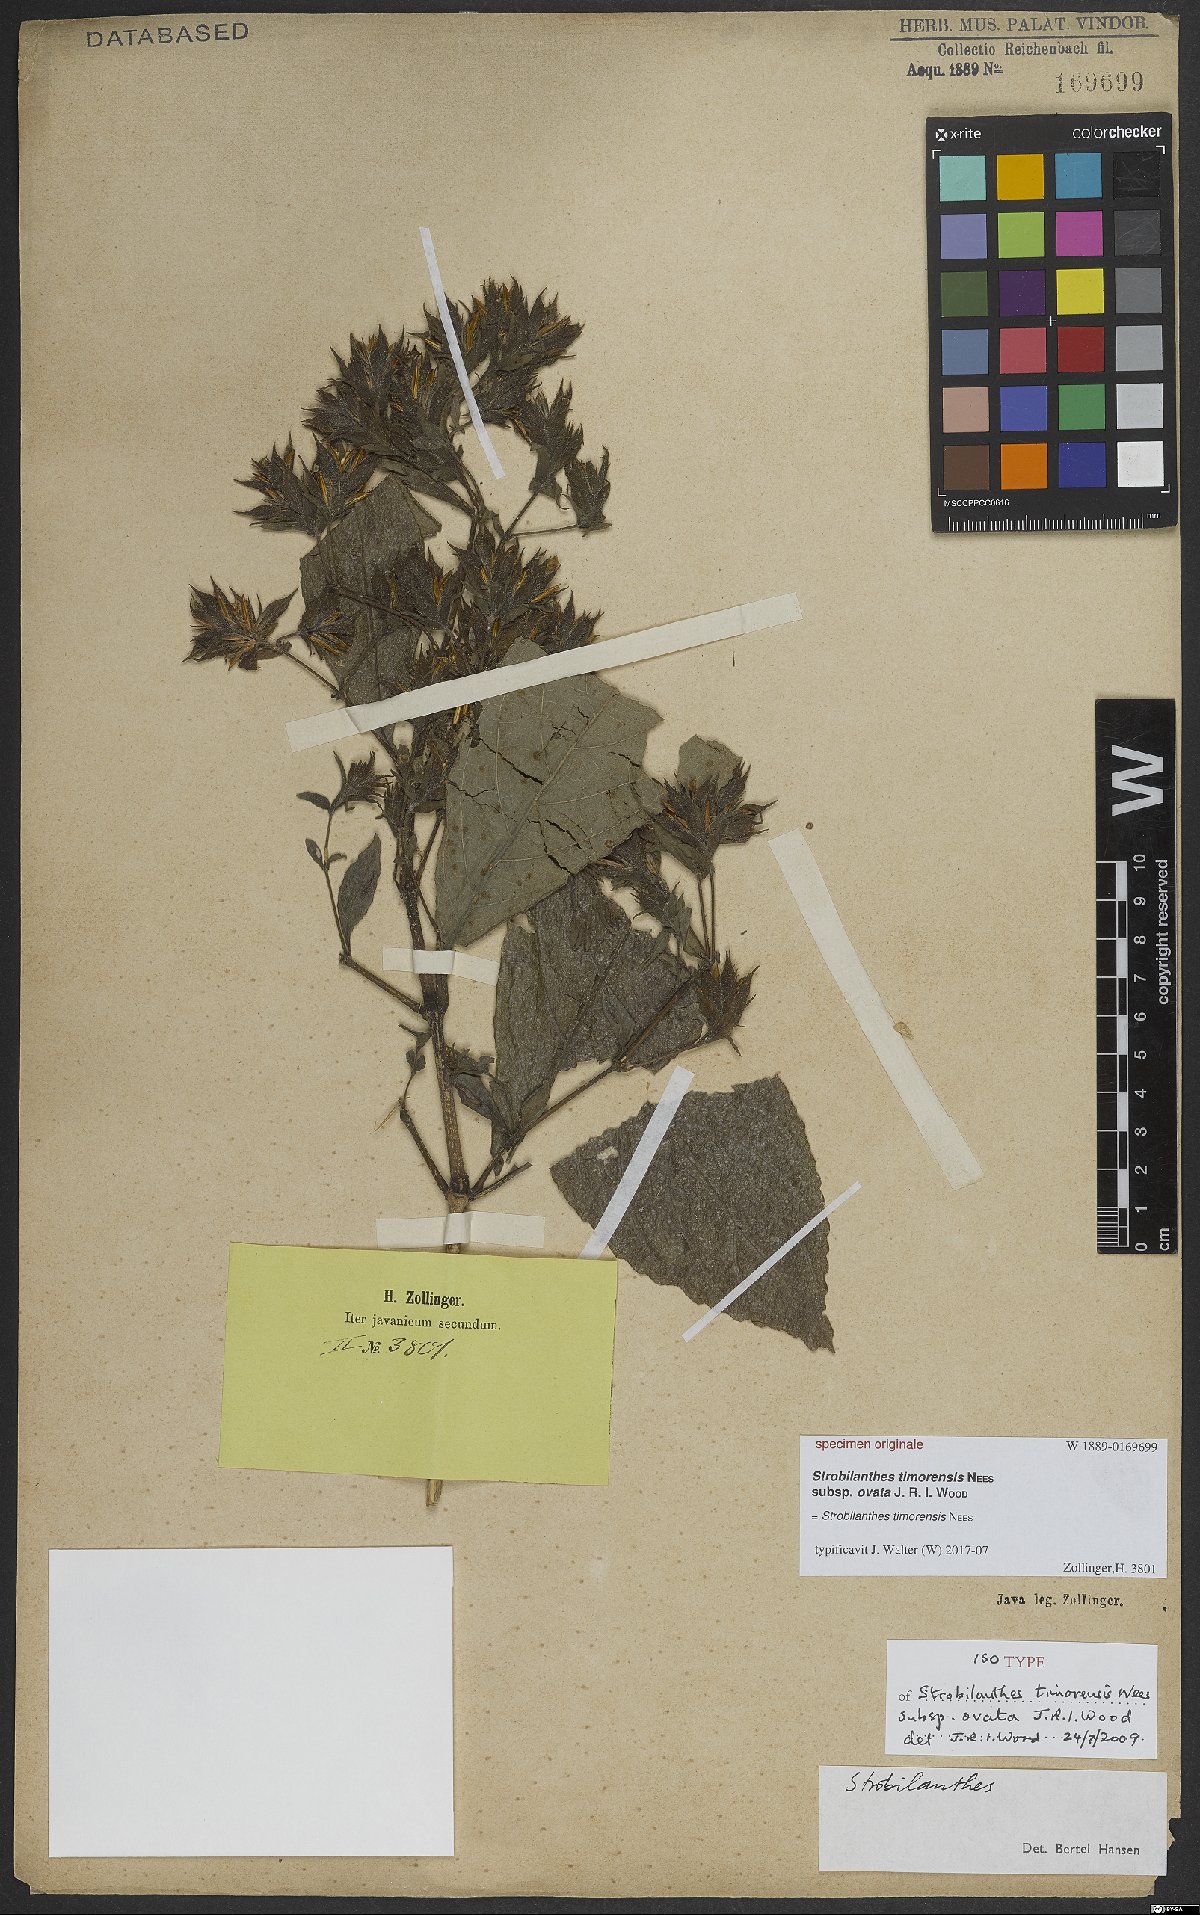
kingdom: Plantae
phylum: Tracheophyta
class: Magnoliopsida
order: Lamiales
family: Acanthaceae
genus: Strobilanthes
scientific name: Strobilanthes timorensis
